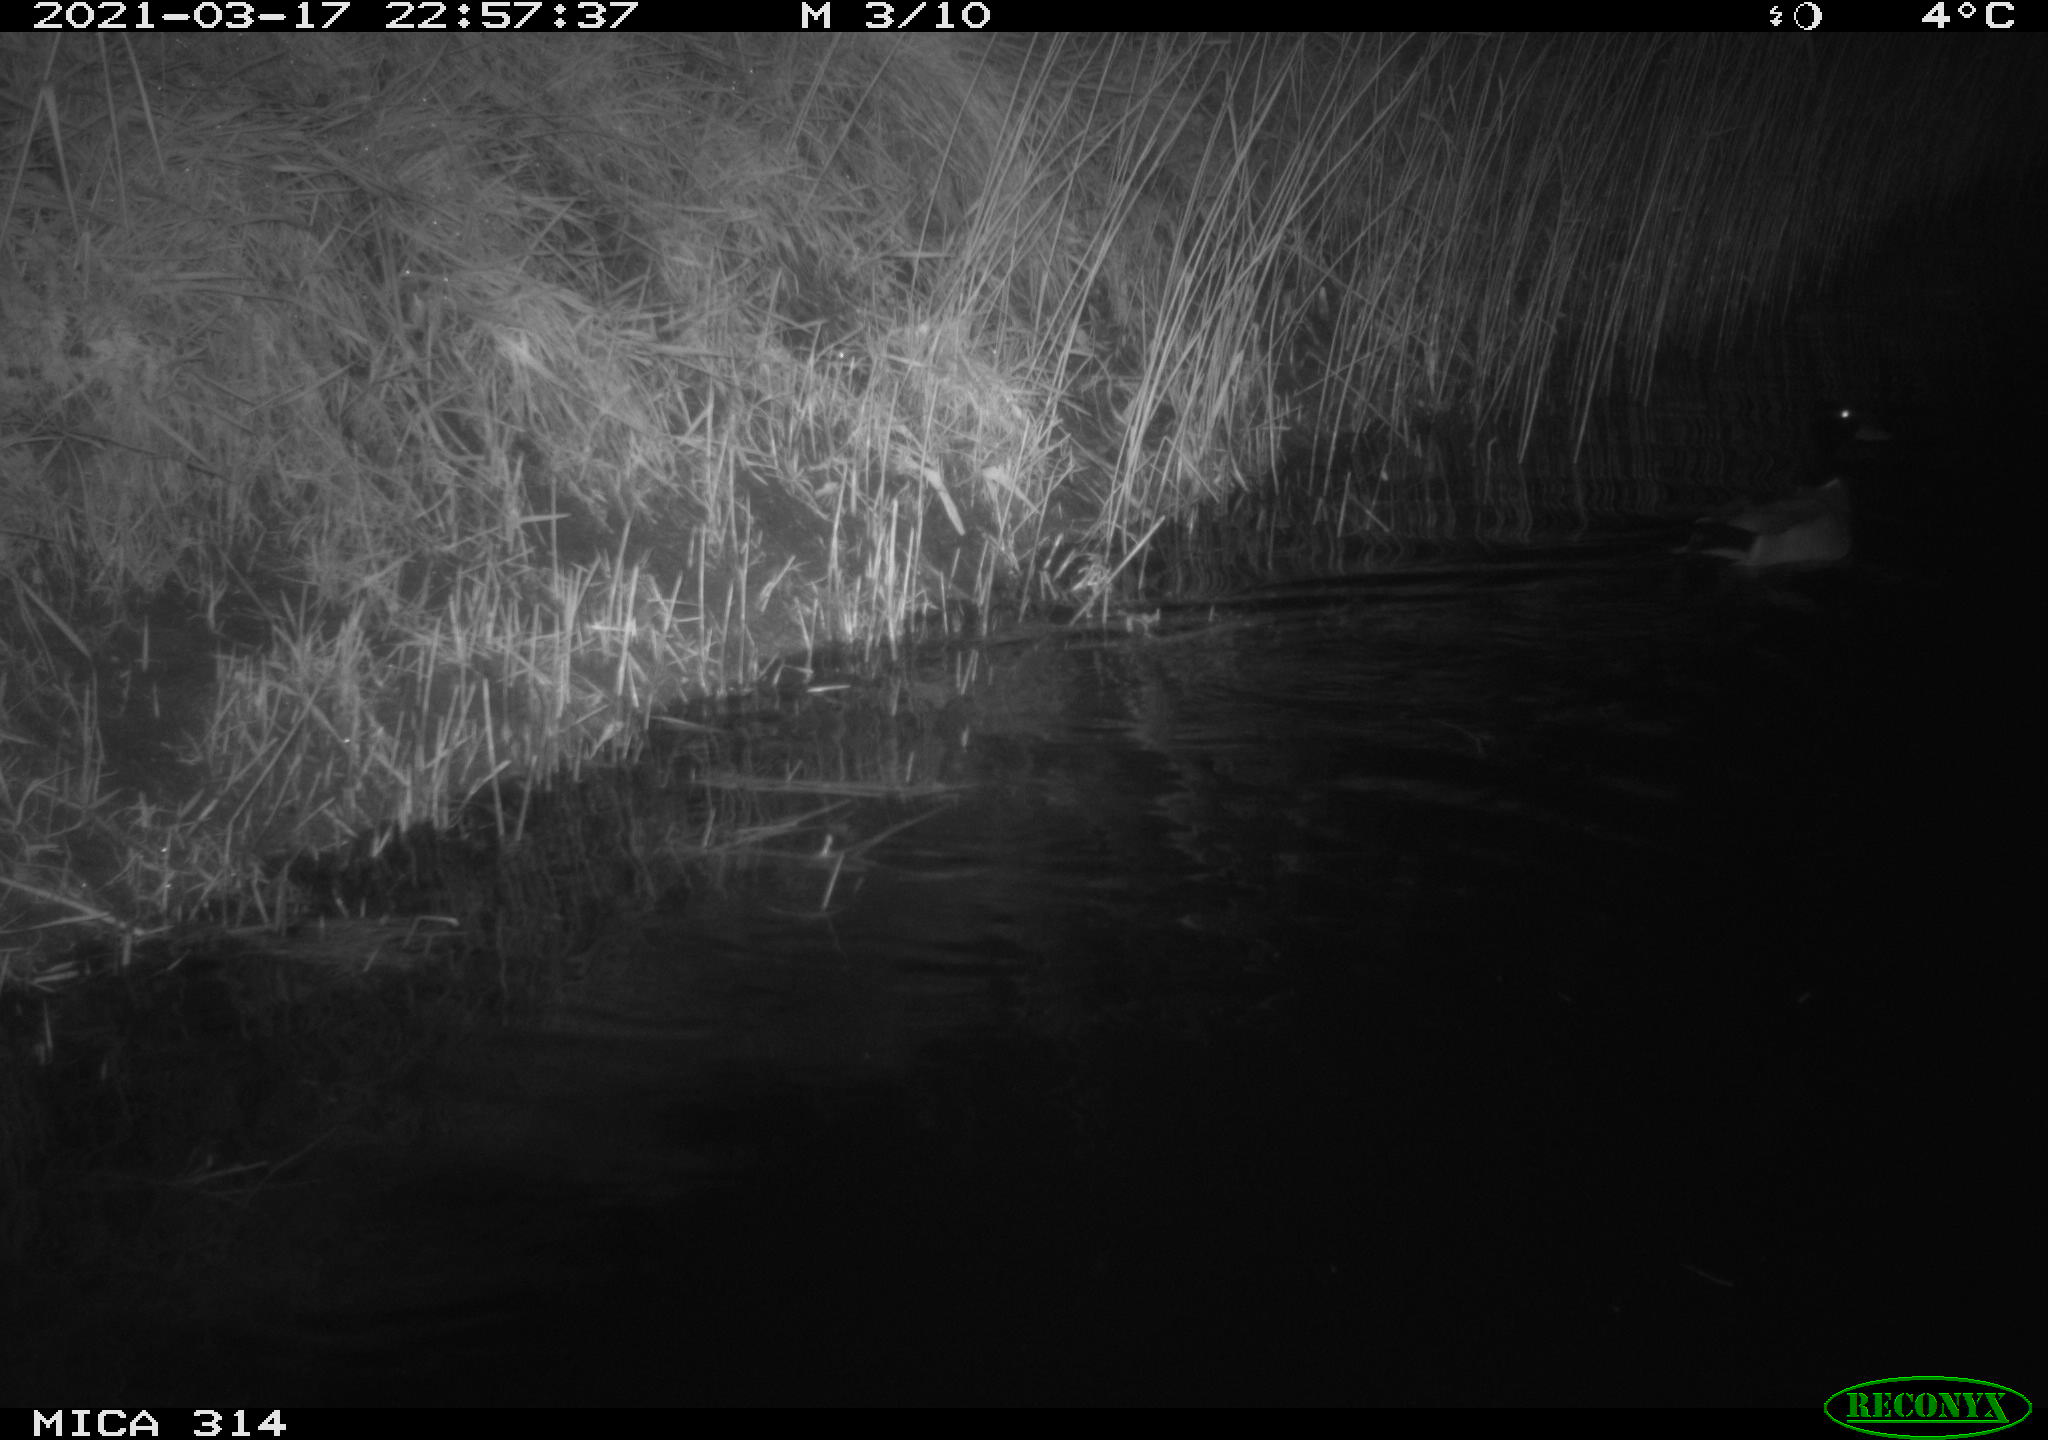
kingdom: Animalia
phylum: Chordata
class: Aves
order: Anseriformes
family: Anatidae
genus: Anas
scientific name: Anas platyrhynchos
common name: Mallard
